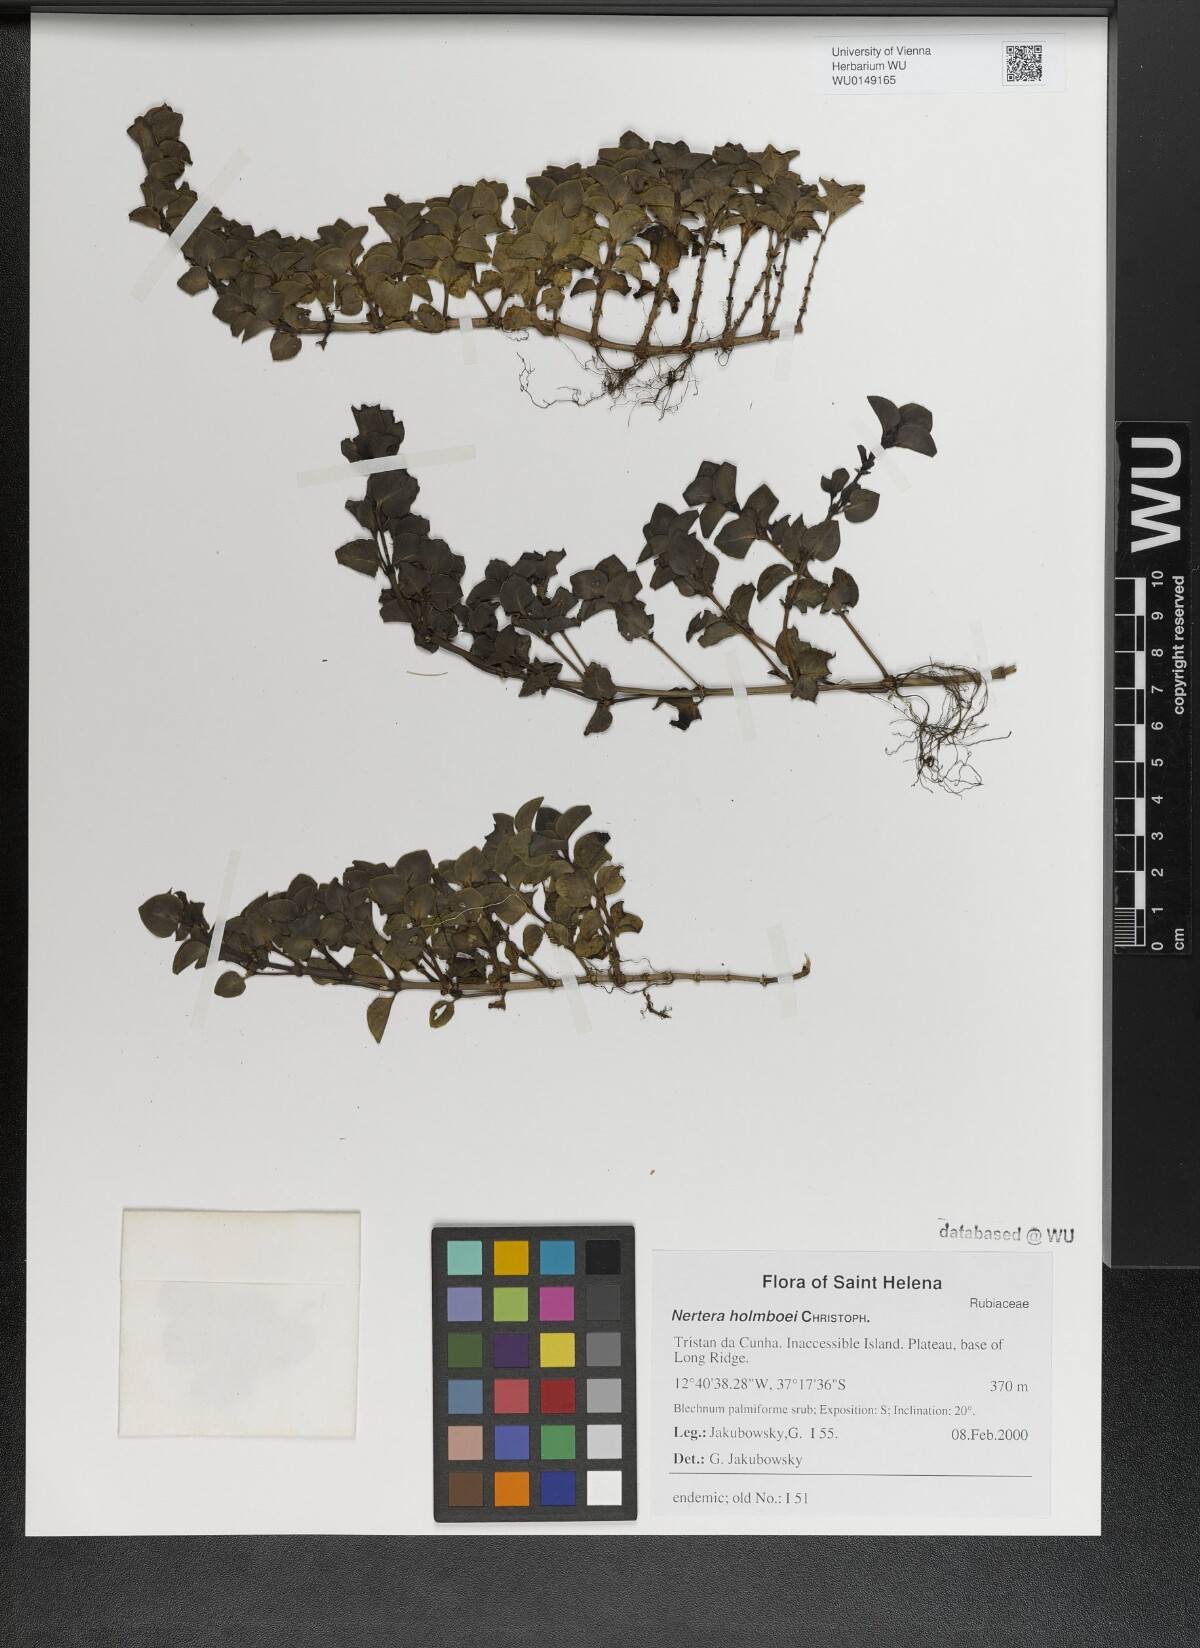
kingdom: Plantae
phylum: Tracheophyta
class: Magnoliopsida
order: Gentianales
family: Rubiaceae
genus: Nertera
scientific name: Nertera holmboei
